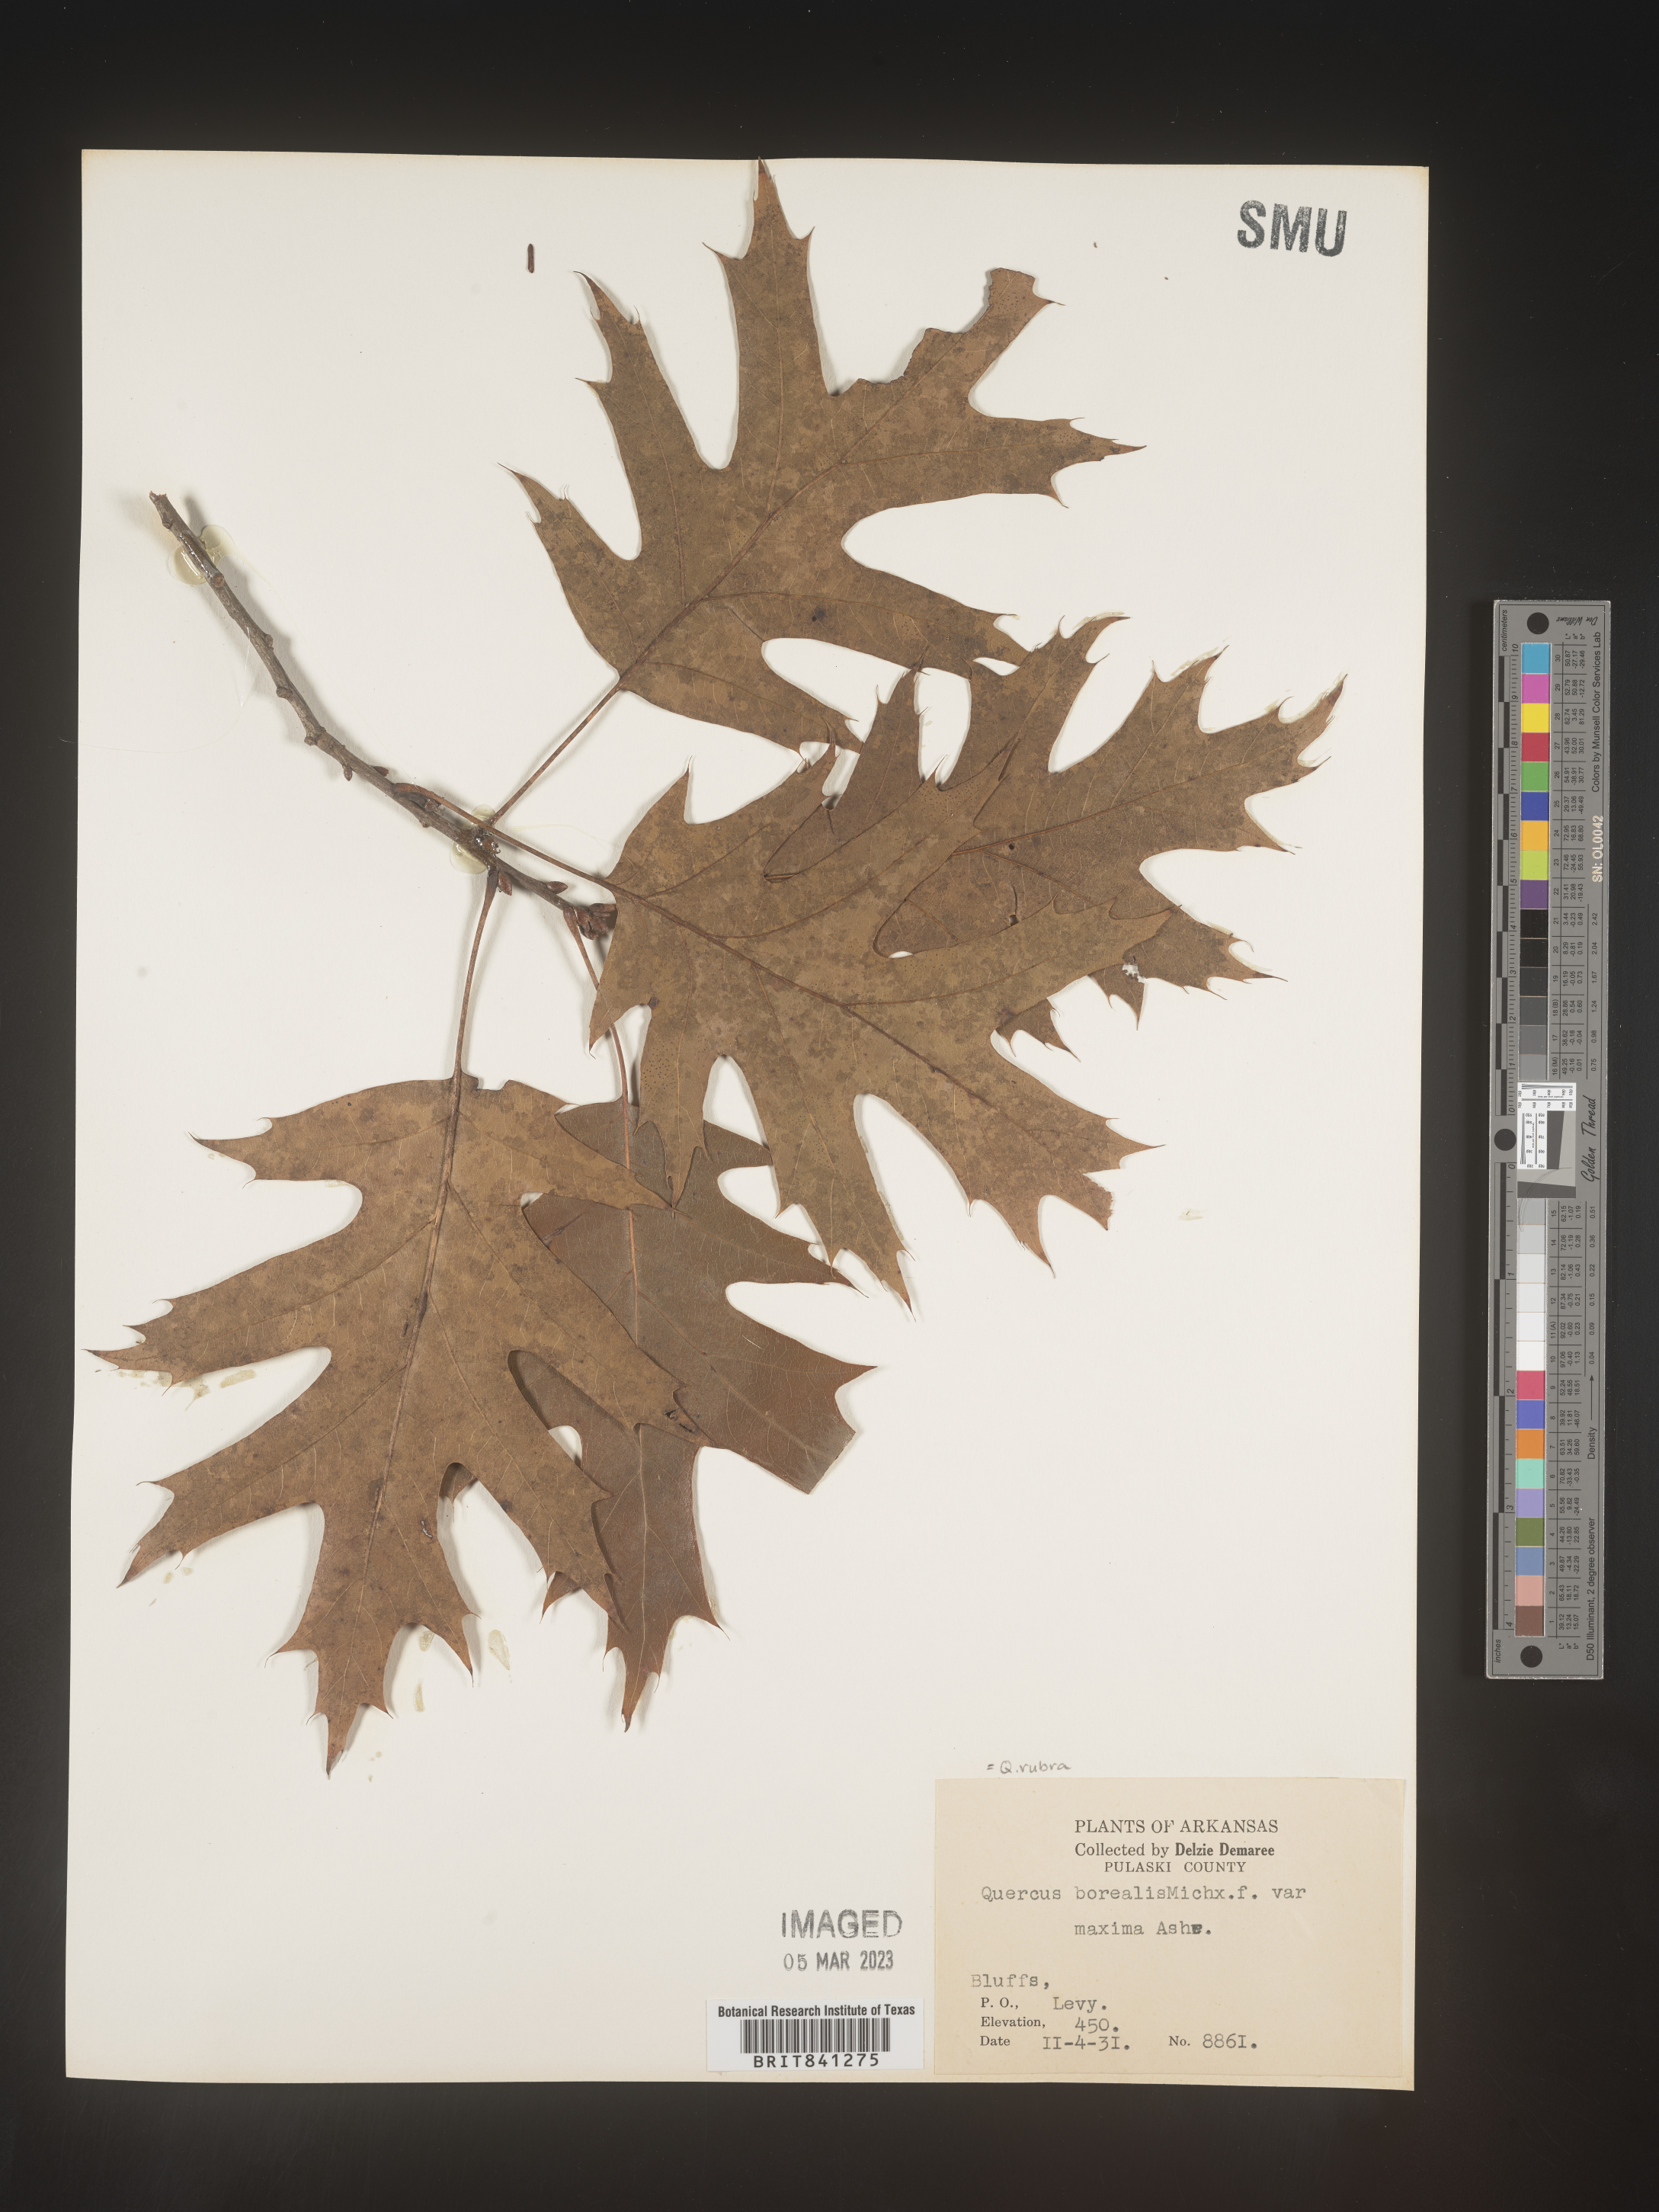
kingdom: Plantae
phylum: Tracheophyta
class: Magnoliopsida
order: Fagales
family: Fagaceae
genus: Quercus
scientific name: Quercus rubra
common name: Red oak
